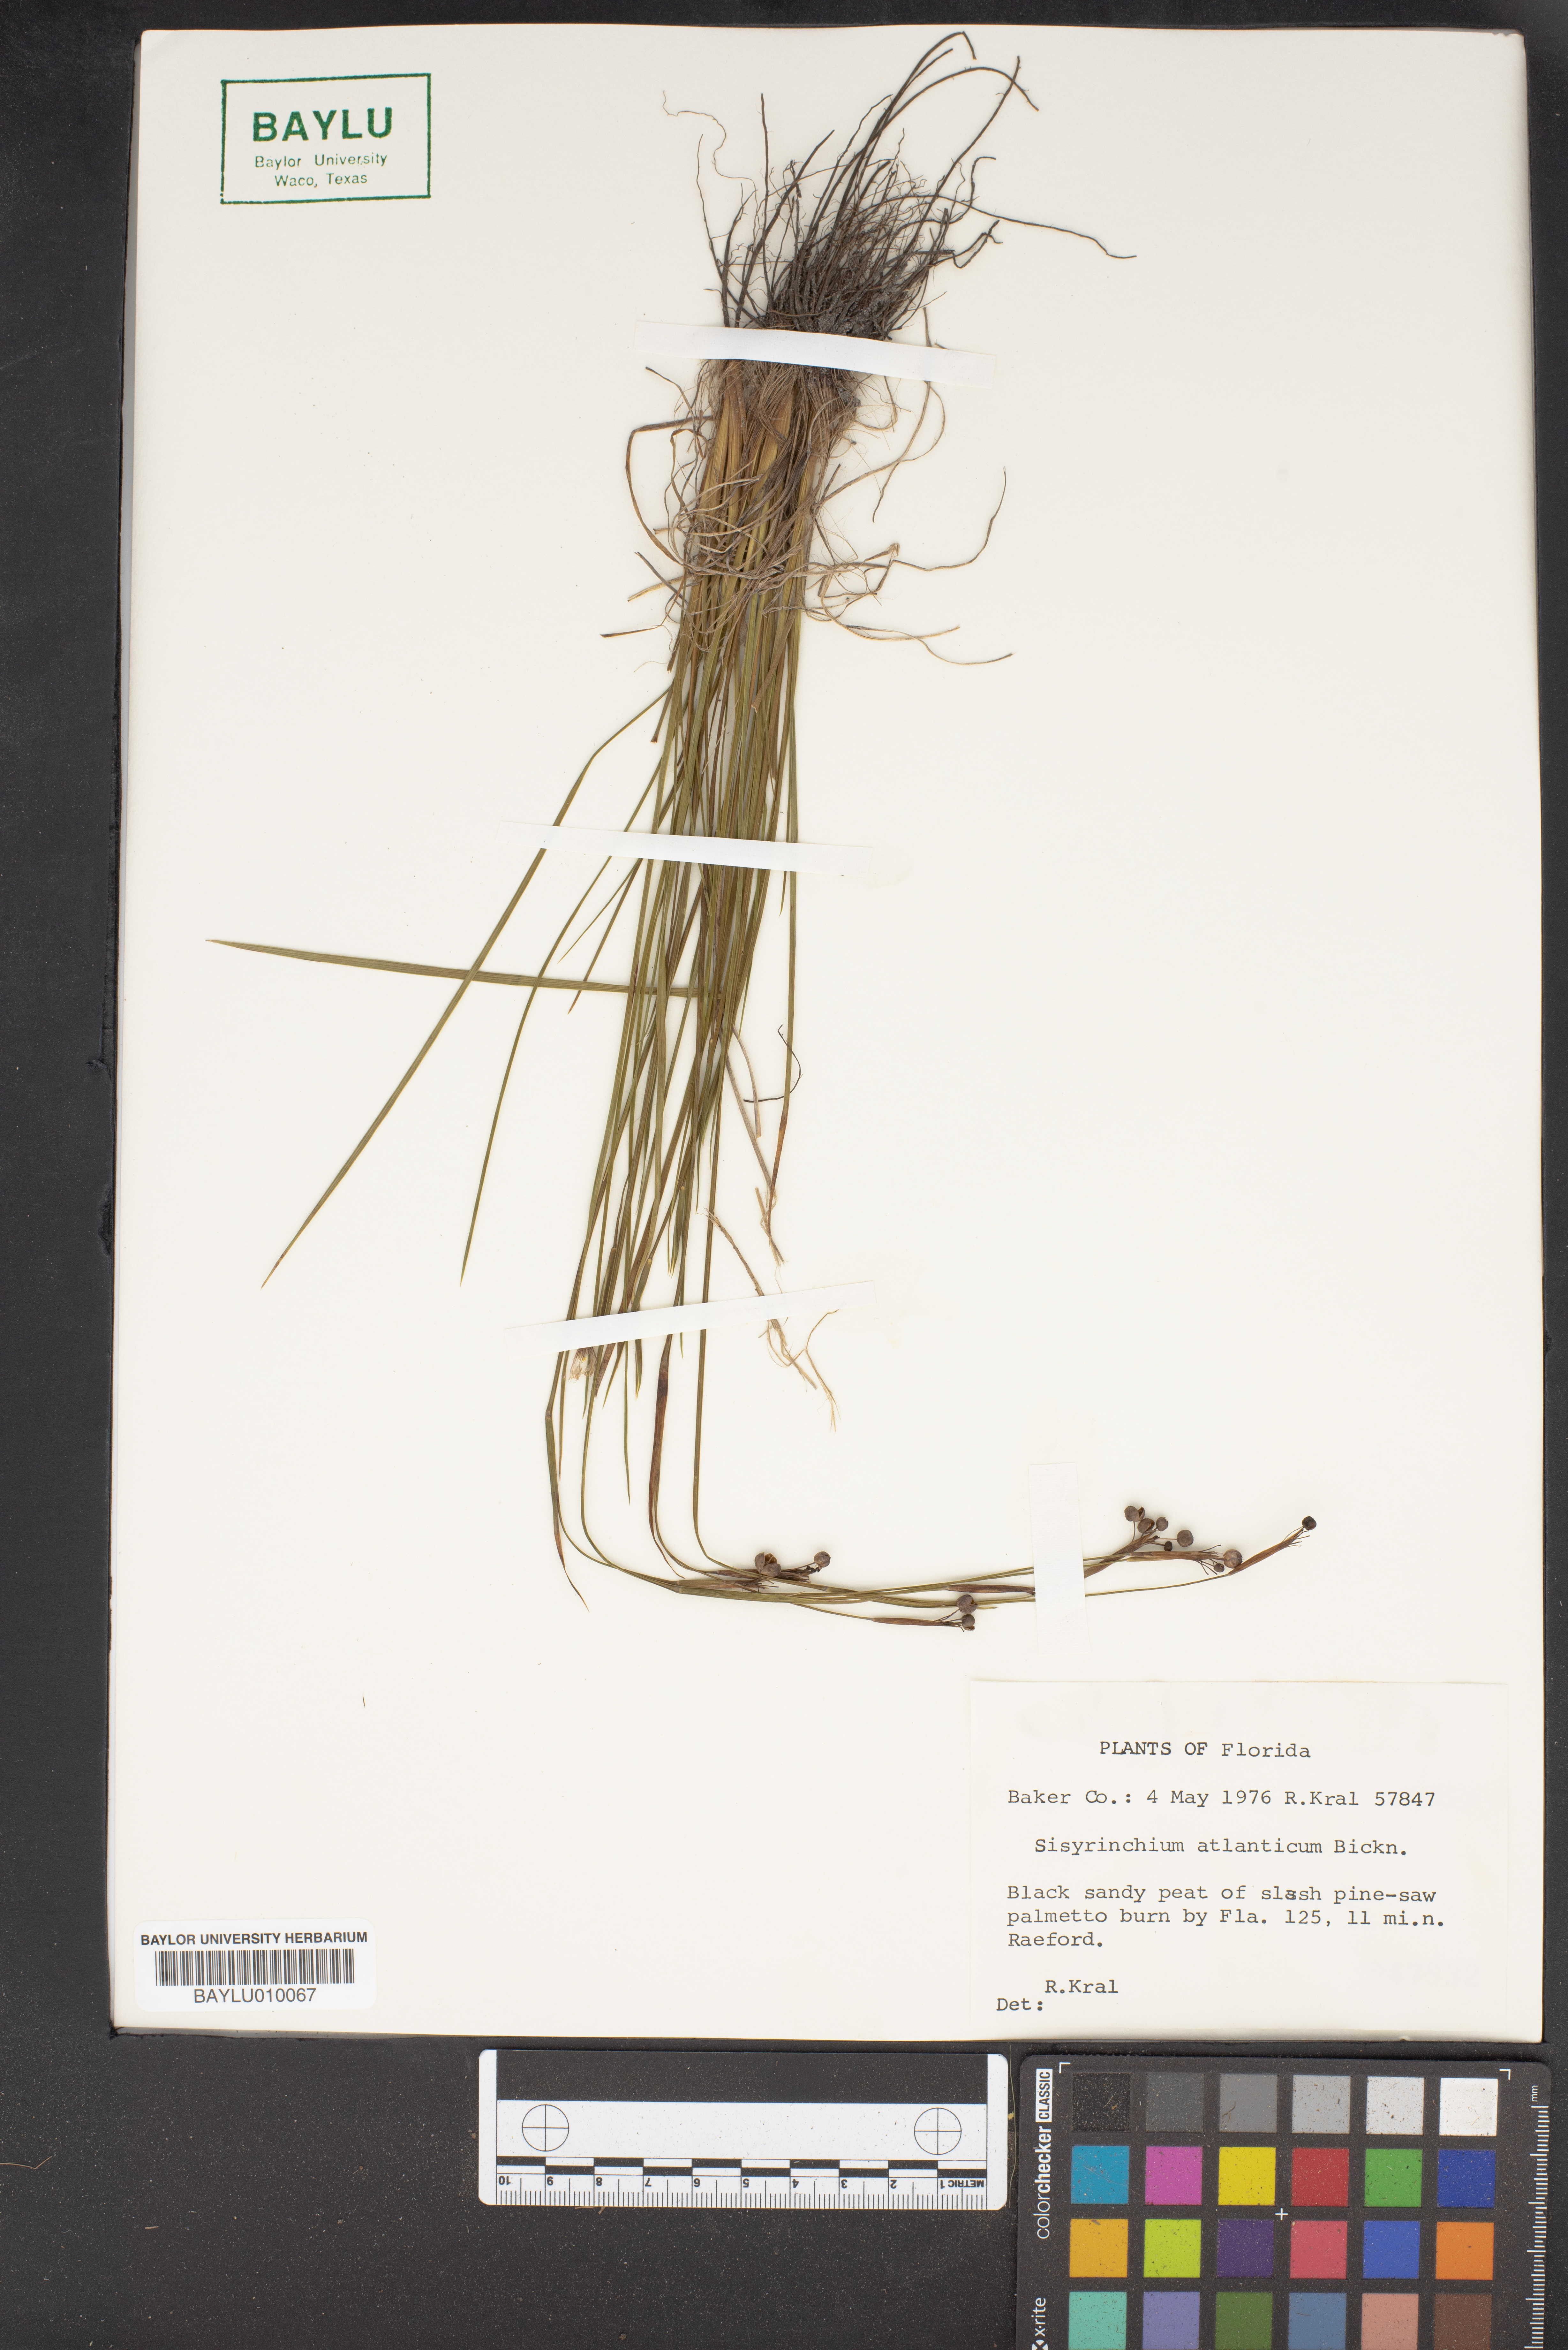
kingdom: Plantae
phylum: Tracheophyta
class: Liliopsida
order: Asparagales
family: Iridaceae
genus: Sisyrinchium
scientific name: Sisyrinchium atlanticum
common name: Eastern blue-eyed-grass
